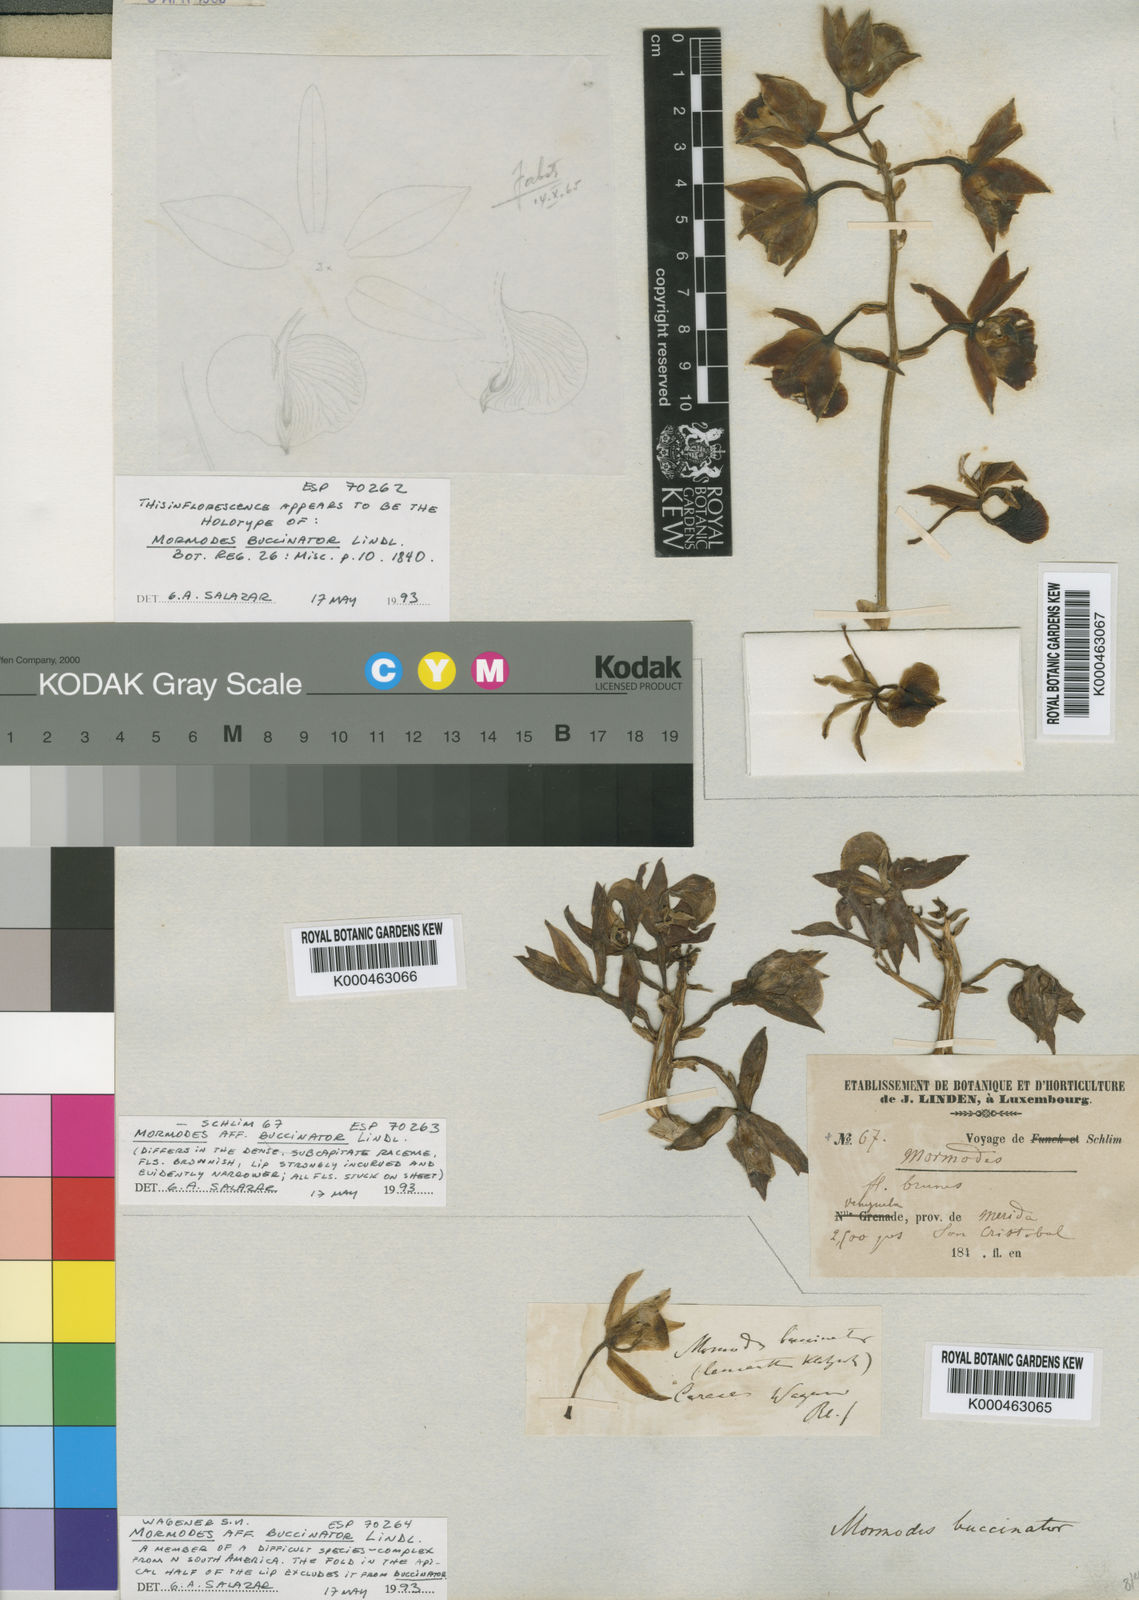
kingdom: Plantae
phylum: Tracheophyta
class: Liliopsida
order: Asparagales
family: Orchidaceae
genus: Mormodes
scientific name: Mormodes buccinator
